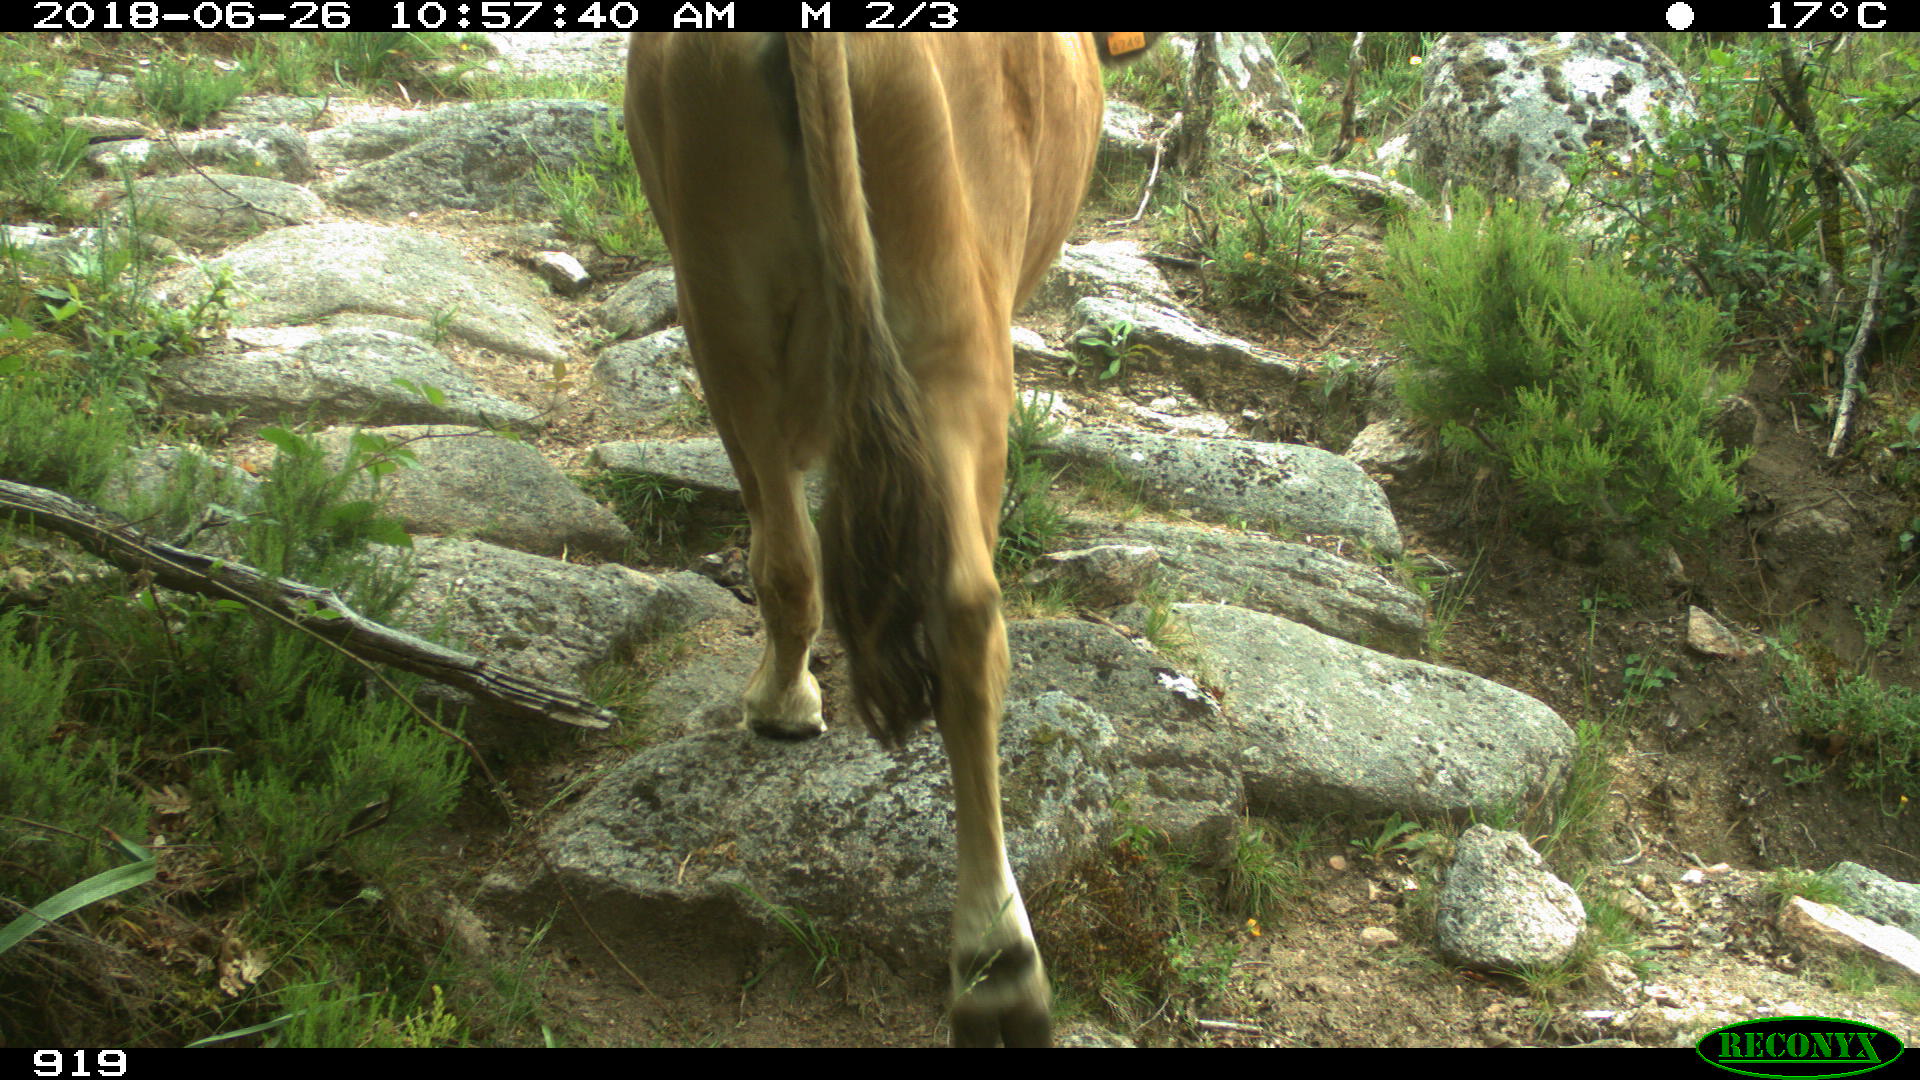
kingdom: Animalia
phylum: Chordata
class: Mammalia
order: Artiodactyla
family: Bovidae
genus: Bos
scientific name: Bos taurus
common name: Domesticated cattle
